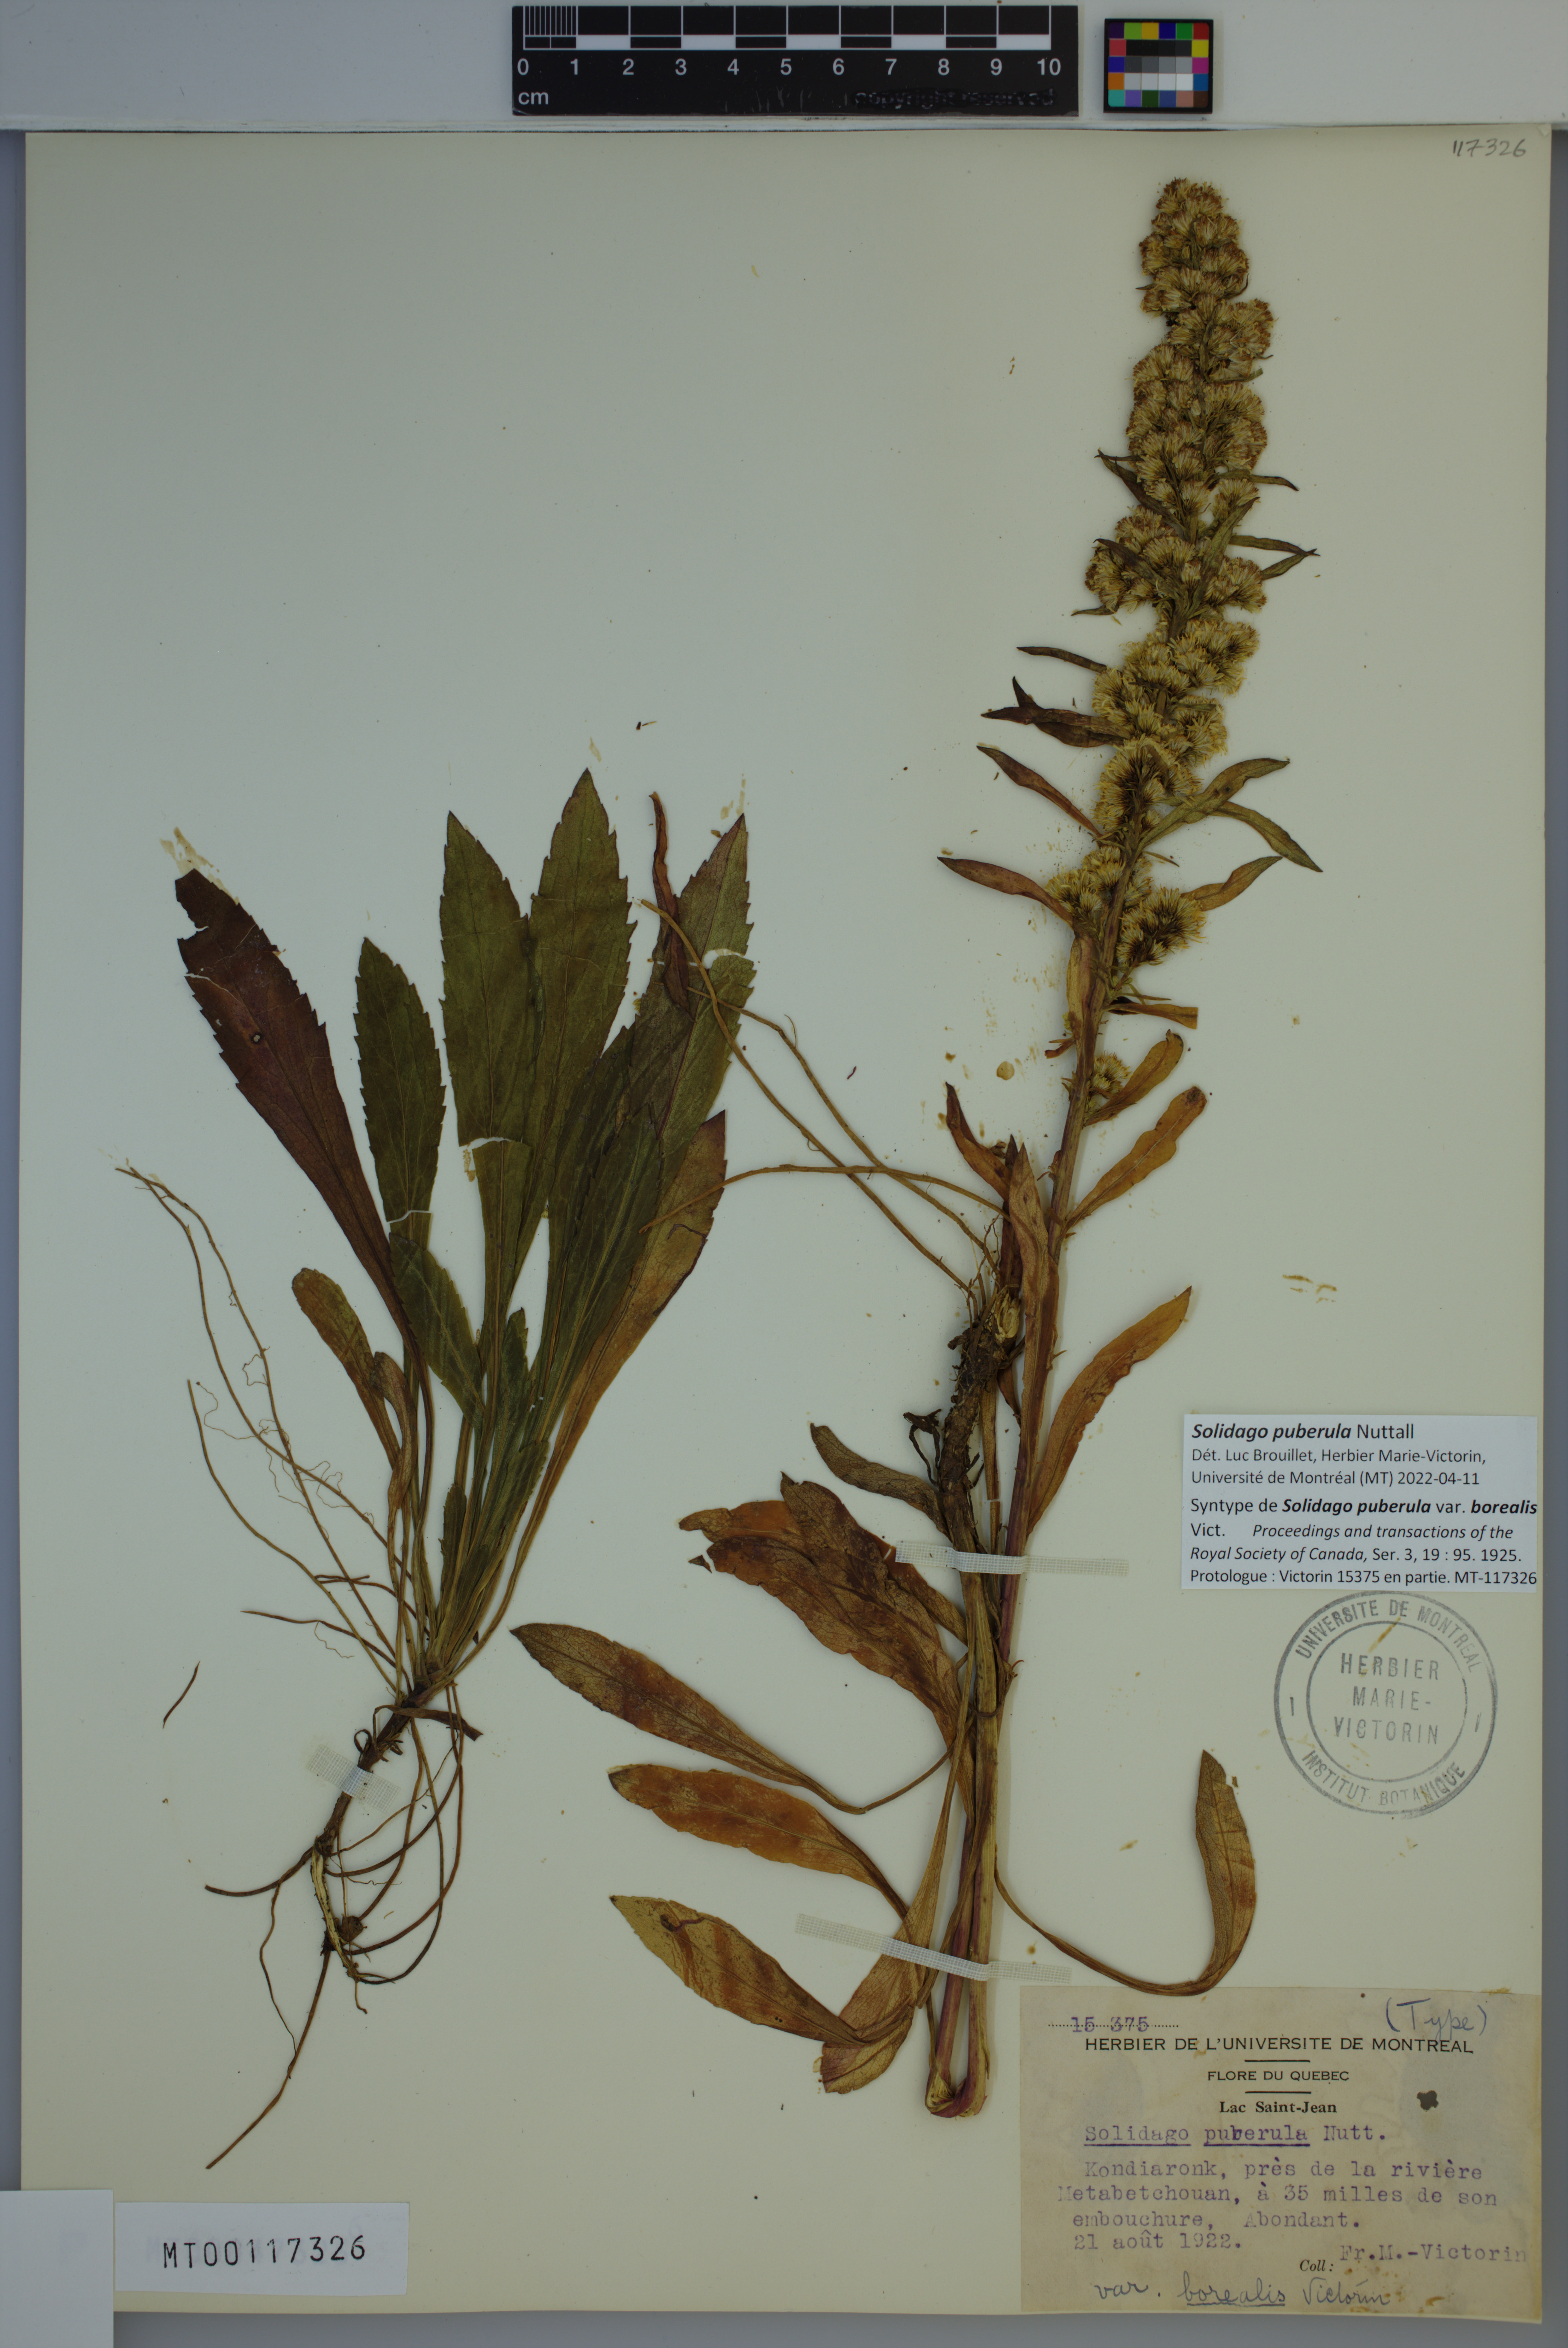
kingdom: Plantae
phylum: Tracheophyta
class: Magnoliopsida
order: Asterales
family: Asteraceae
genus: Solidago
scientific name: Solidago puberula
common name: Downy goldenrod
